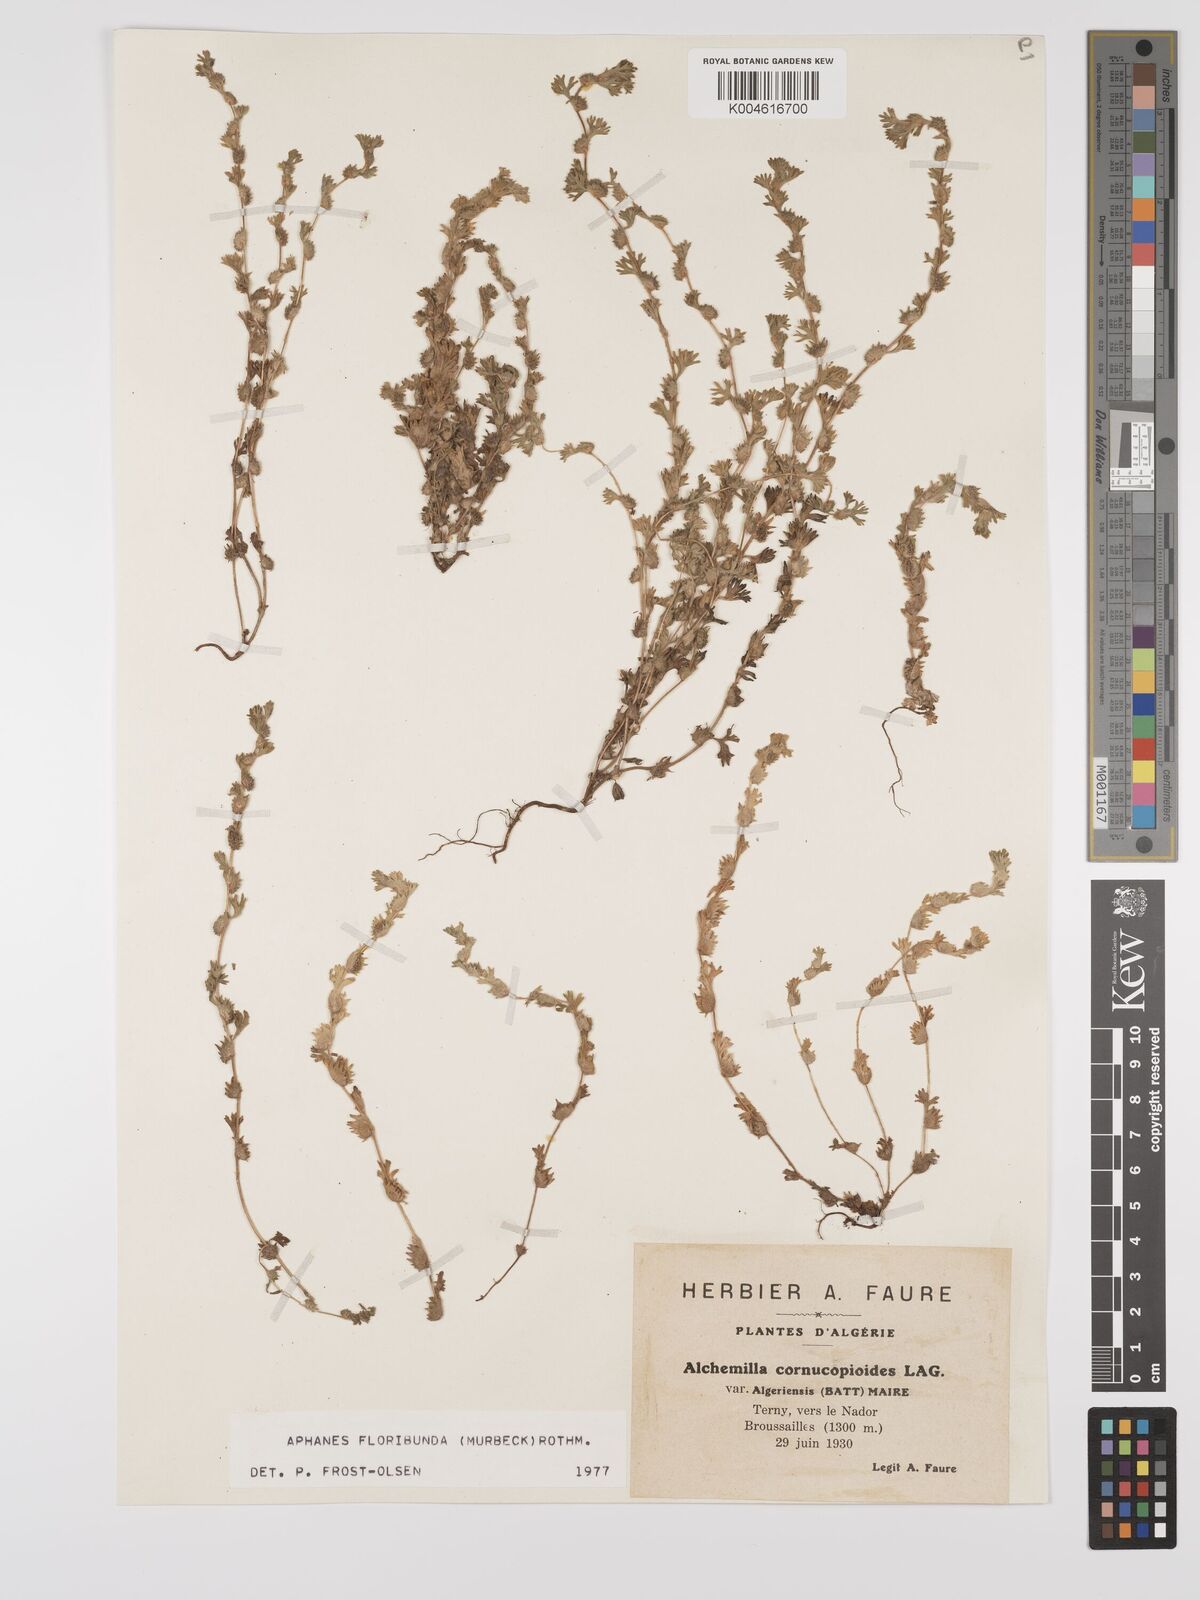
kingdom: Plantae
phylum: Tracheophyta
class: Magnoliopsida
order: Rosales
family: Rosaceae
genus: Aphanes
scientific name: Aphanes floribunda
